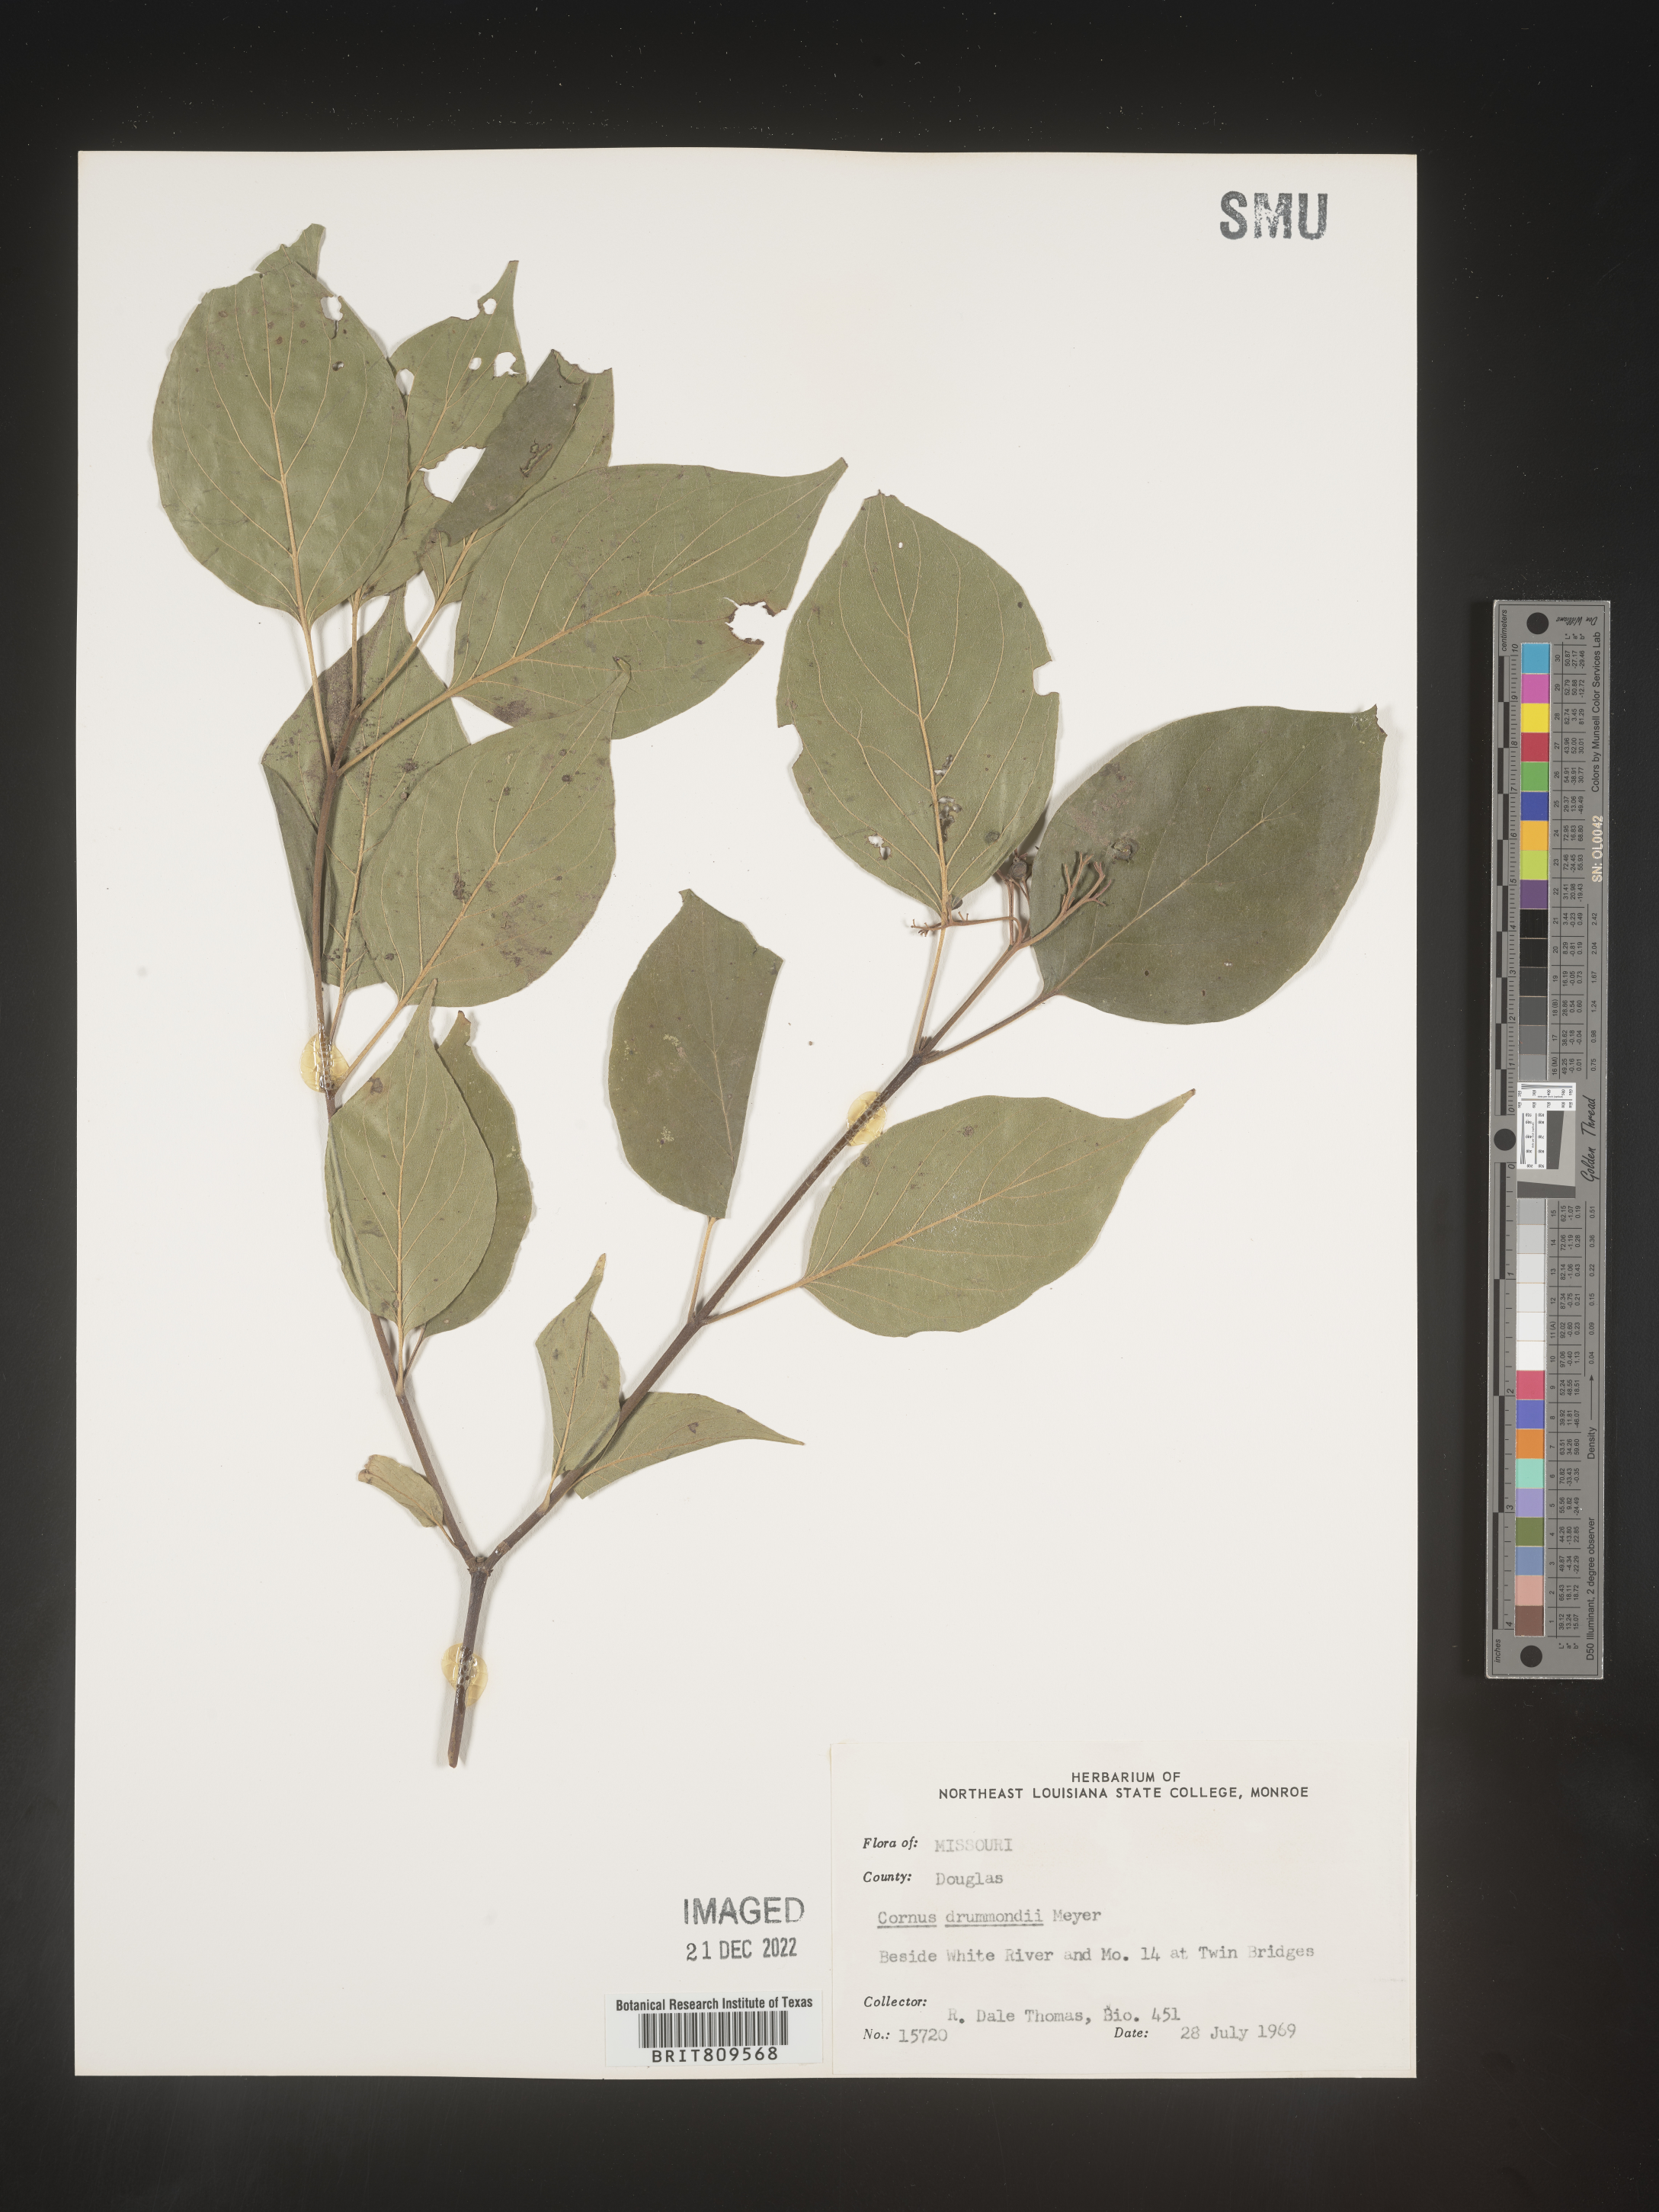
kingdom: Plantae
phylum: Tracheophyta
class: Magnoliopsida
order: Cornales
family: Cornaceae
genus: Cornus
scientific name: Cornus drummondii
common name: Rough-leaf dogwood
